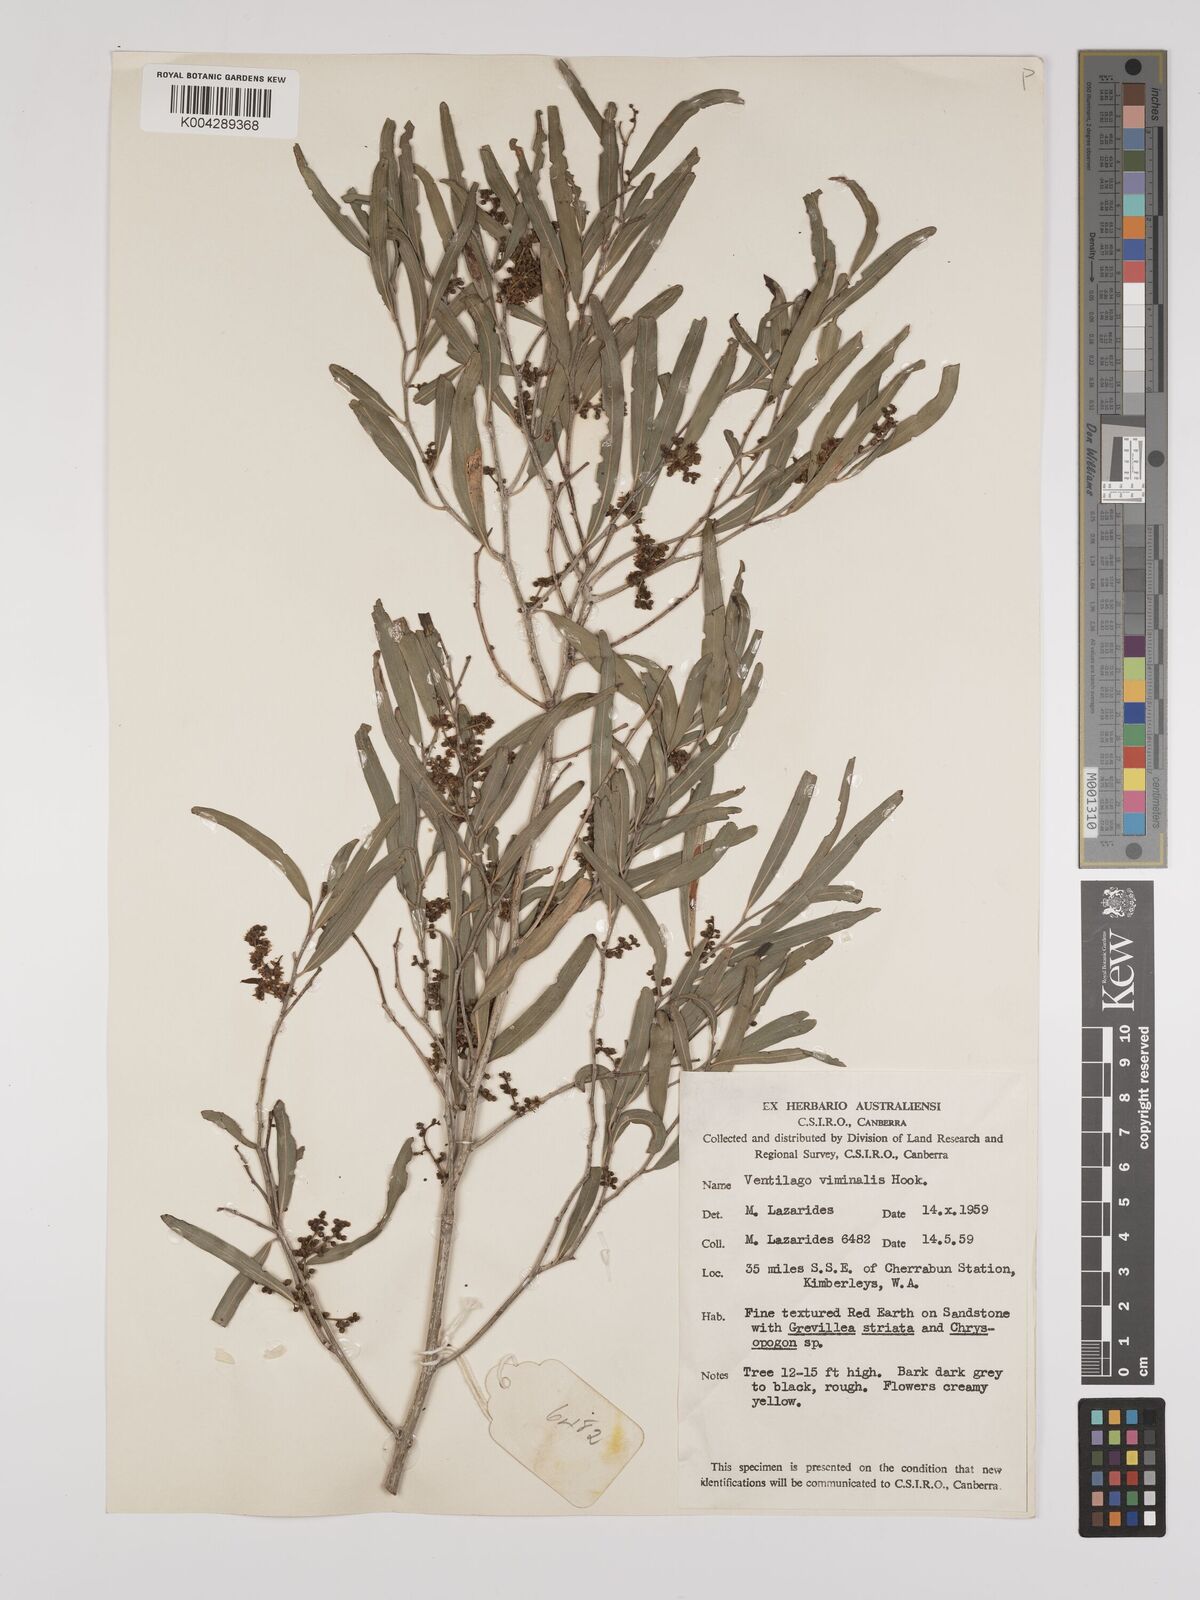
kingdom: Plantae
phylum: Tracheophyta
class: Magnoliopsida
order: Rosales
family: Rhamnaceae
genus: Ventilago
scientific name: Ventilago viminalis
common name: Medicine-bark
